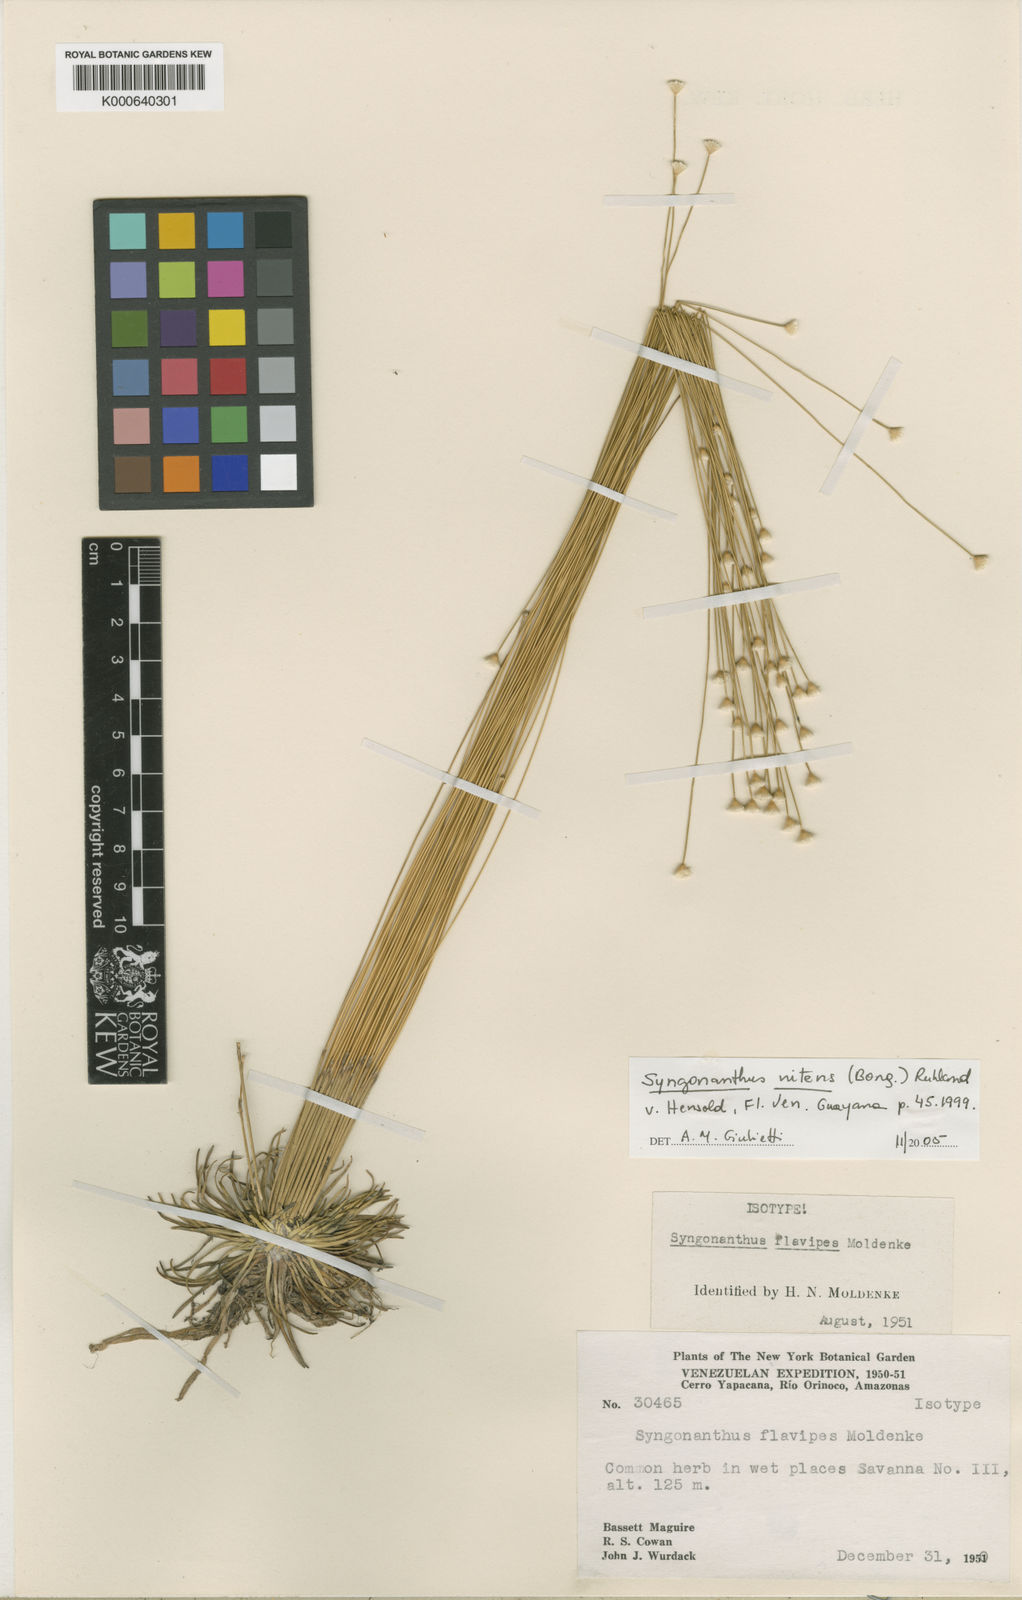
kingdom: Plantae
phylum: Tracheophyta
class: Liliopsida
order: Poales
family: Eriocaulaceae
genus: Syngonanthus
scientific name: Syngonanthus nitens
